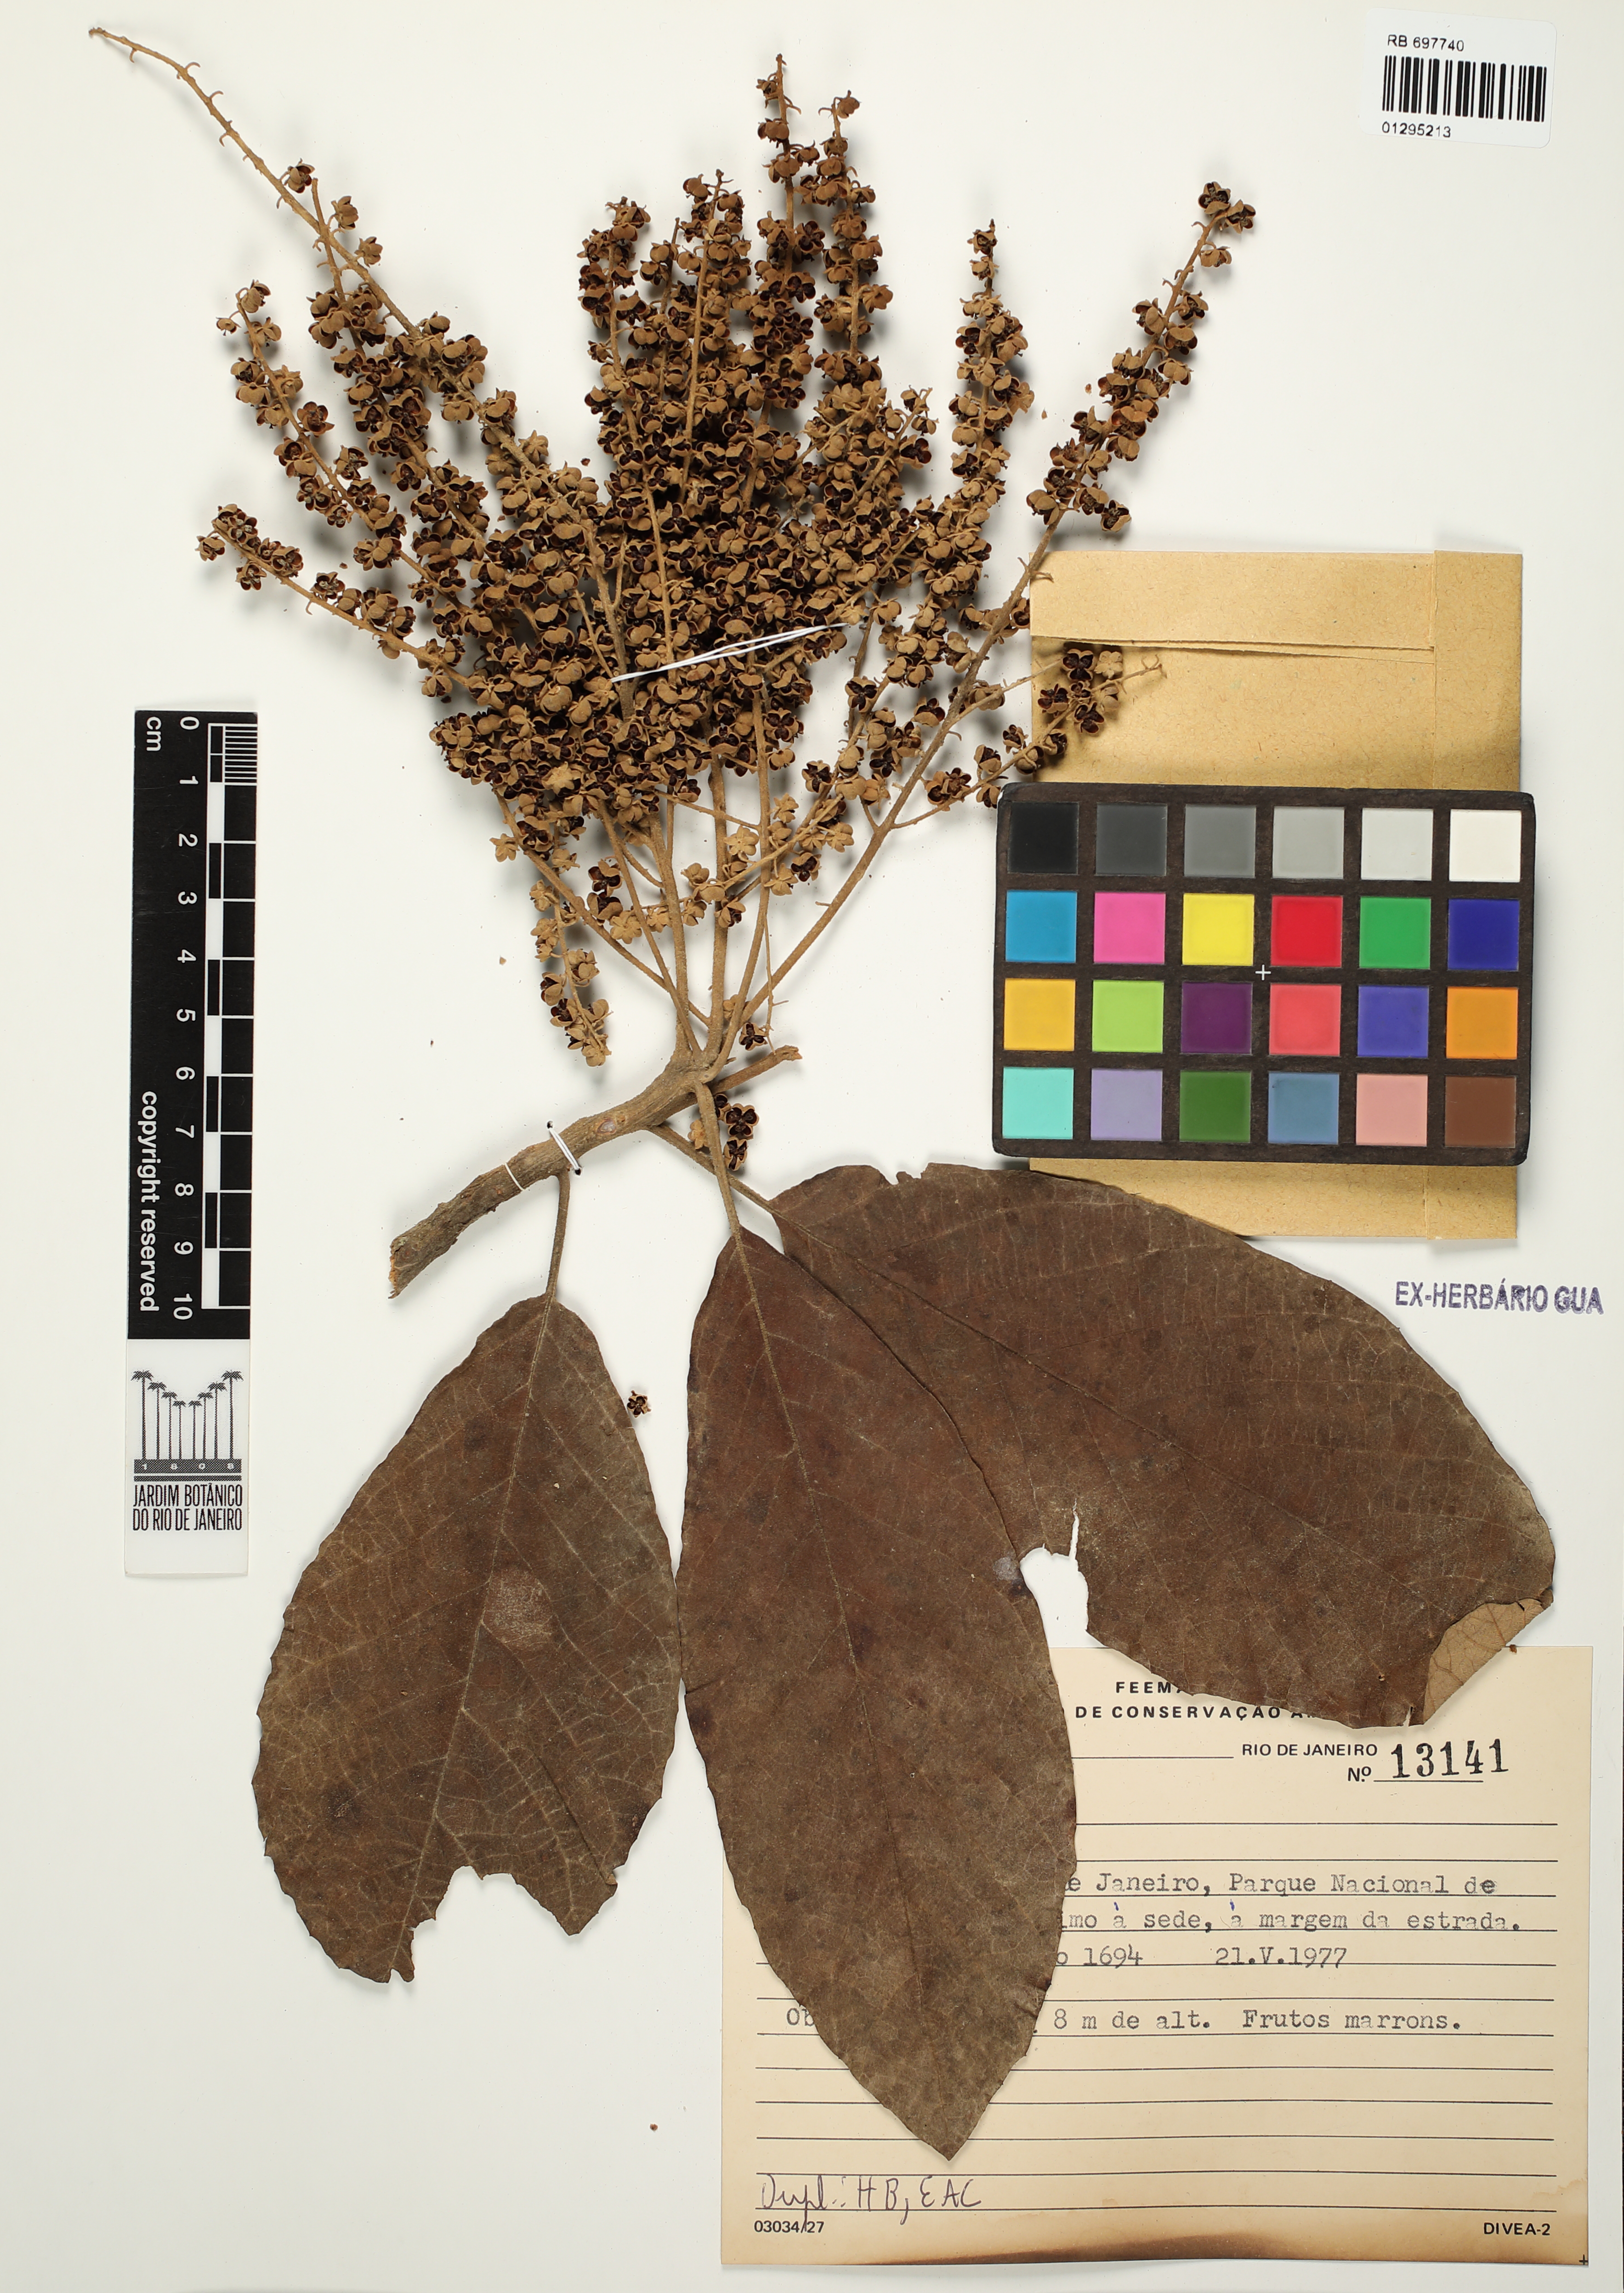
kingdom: Plantae
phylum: Tracheophyta
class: Magnoliopsida
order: Ericales
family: Clethraceae
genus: Clethra
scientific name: Clethra
